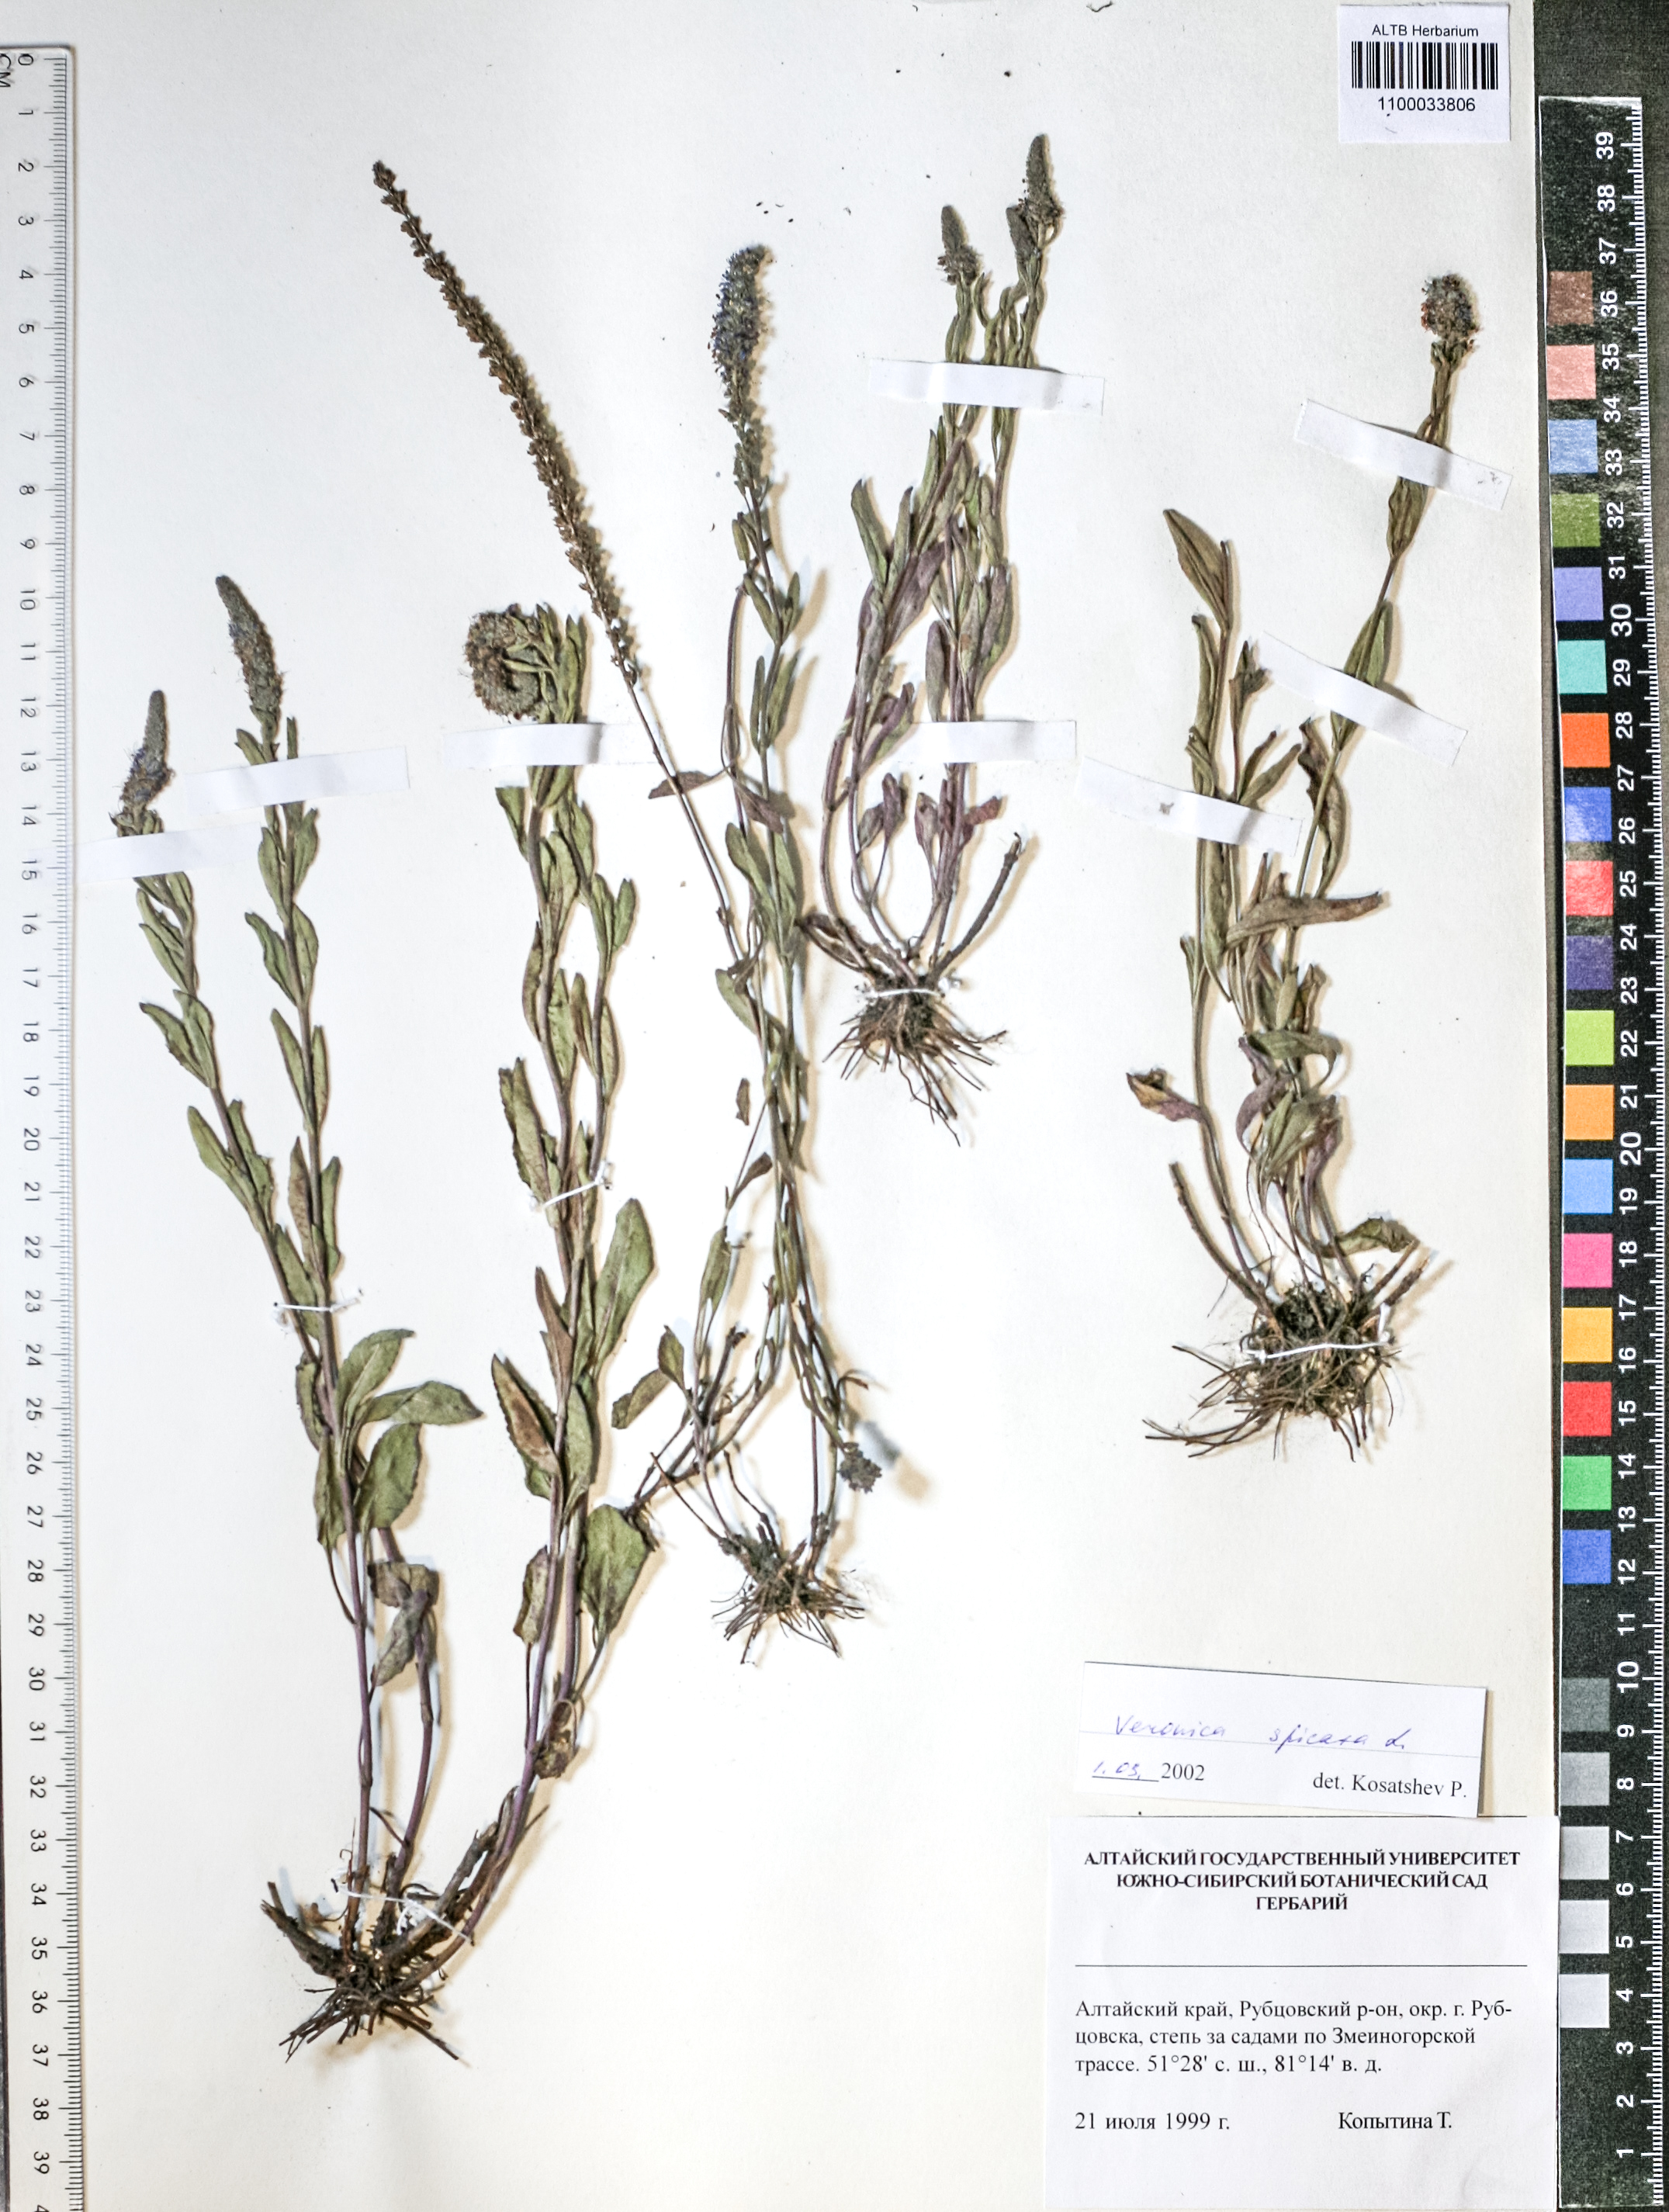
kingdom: Plantae
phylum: Tracheophyta
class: Magnoliopsida
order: Lamiales
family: Plantaginaceae
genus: Veronica
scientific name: Veronica spicata
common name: Spiked speedwell
